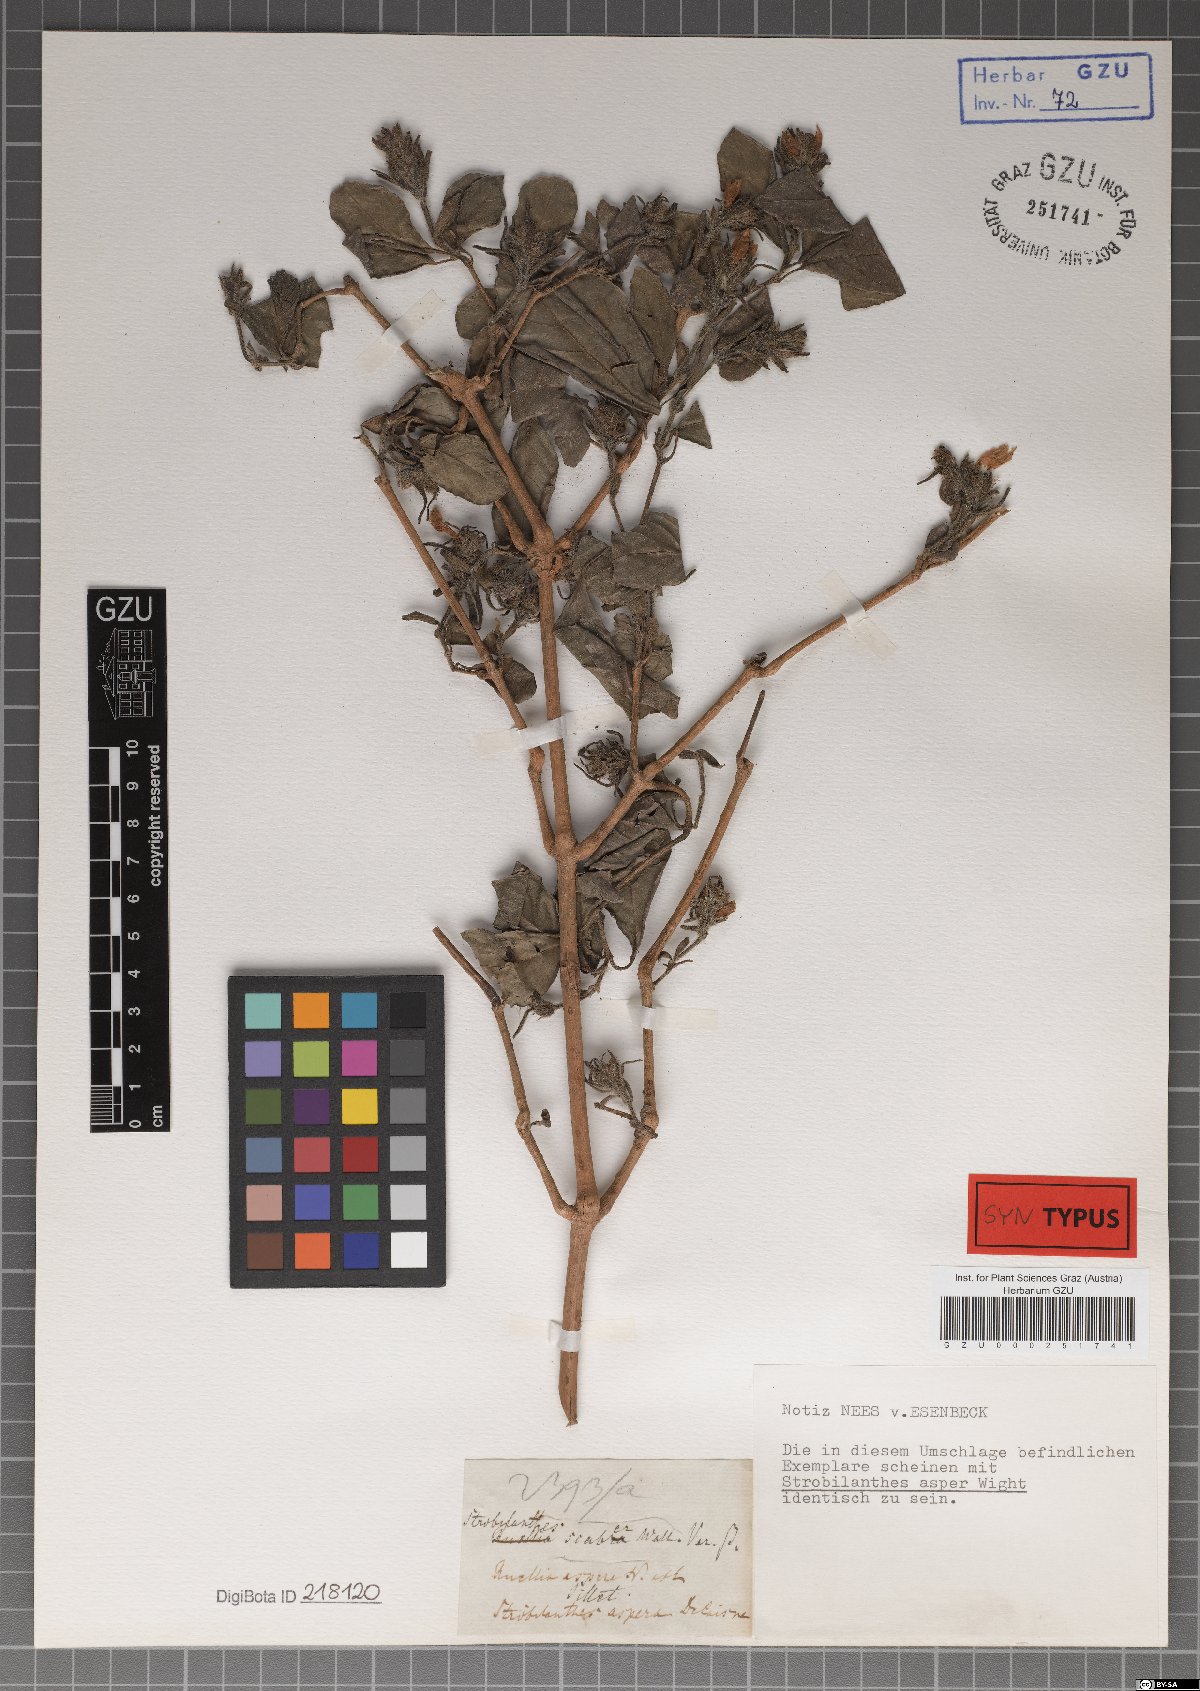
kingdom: Plantae
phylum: Tracheophyta
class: Magnoliopsida
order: Lamiales
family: Acanthaceae
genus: Strobilanthes
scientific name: Strobilanthes scaber
